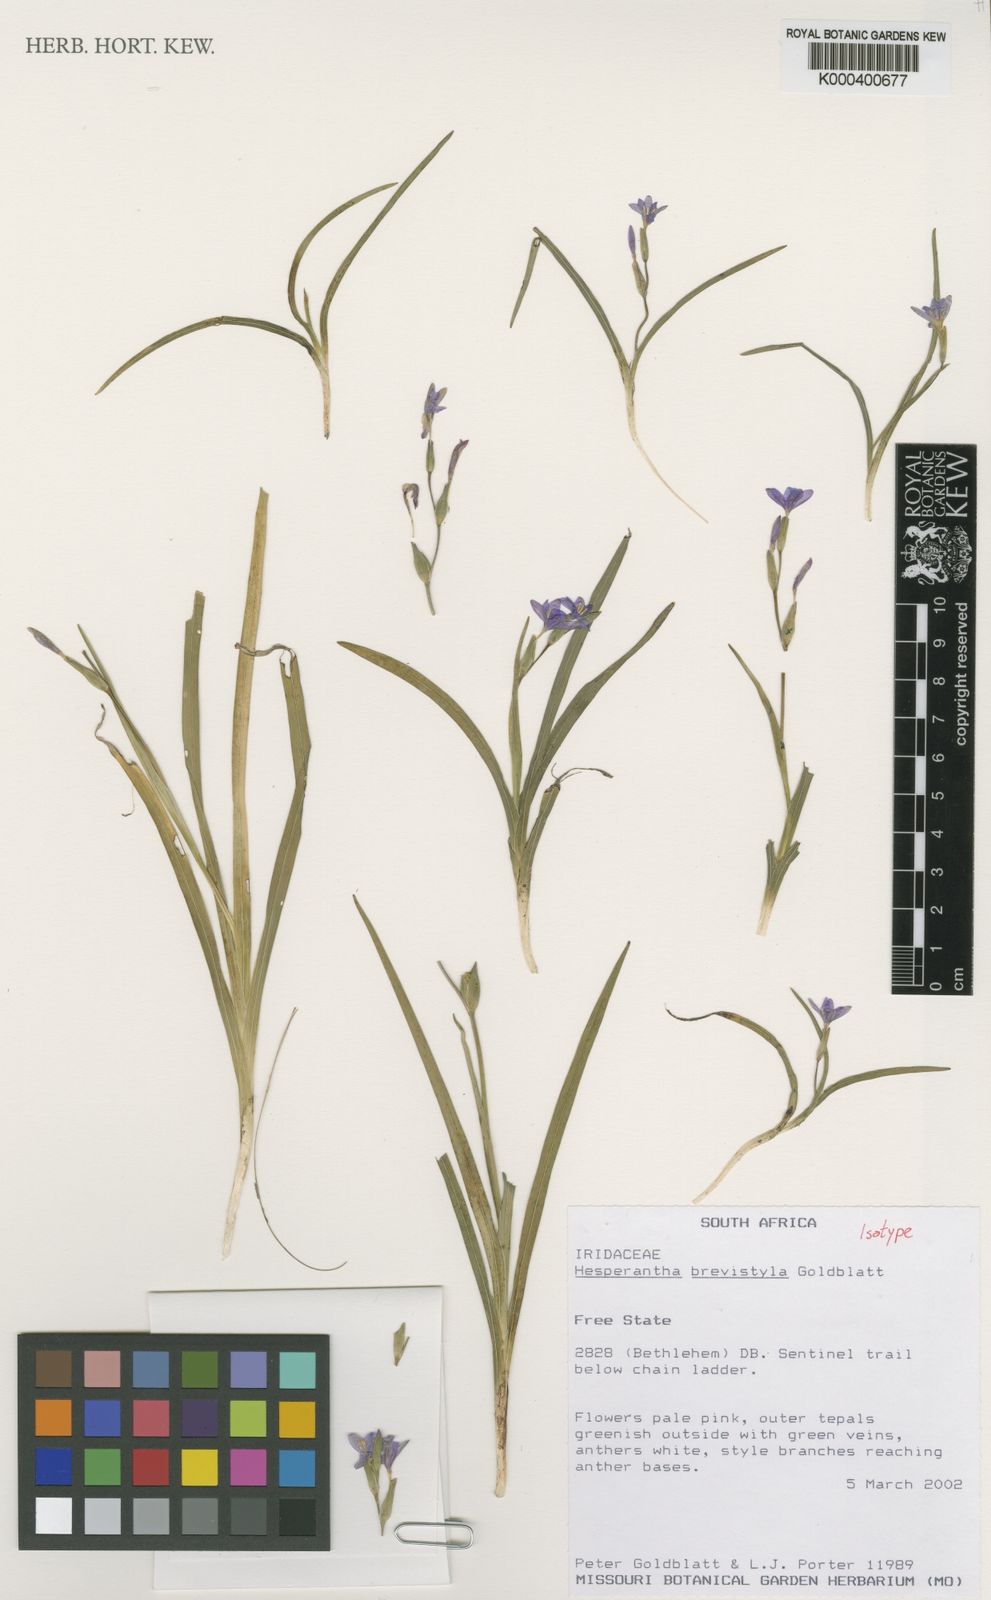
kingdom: Plantae
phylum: Tracheophyta
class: Liliopsida
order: Asparagales
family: Iridaceae
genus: Hesperantha
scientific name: Hesperantha brevistyla
